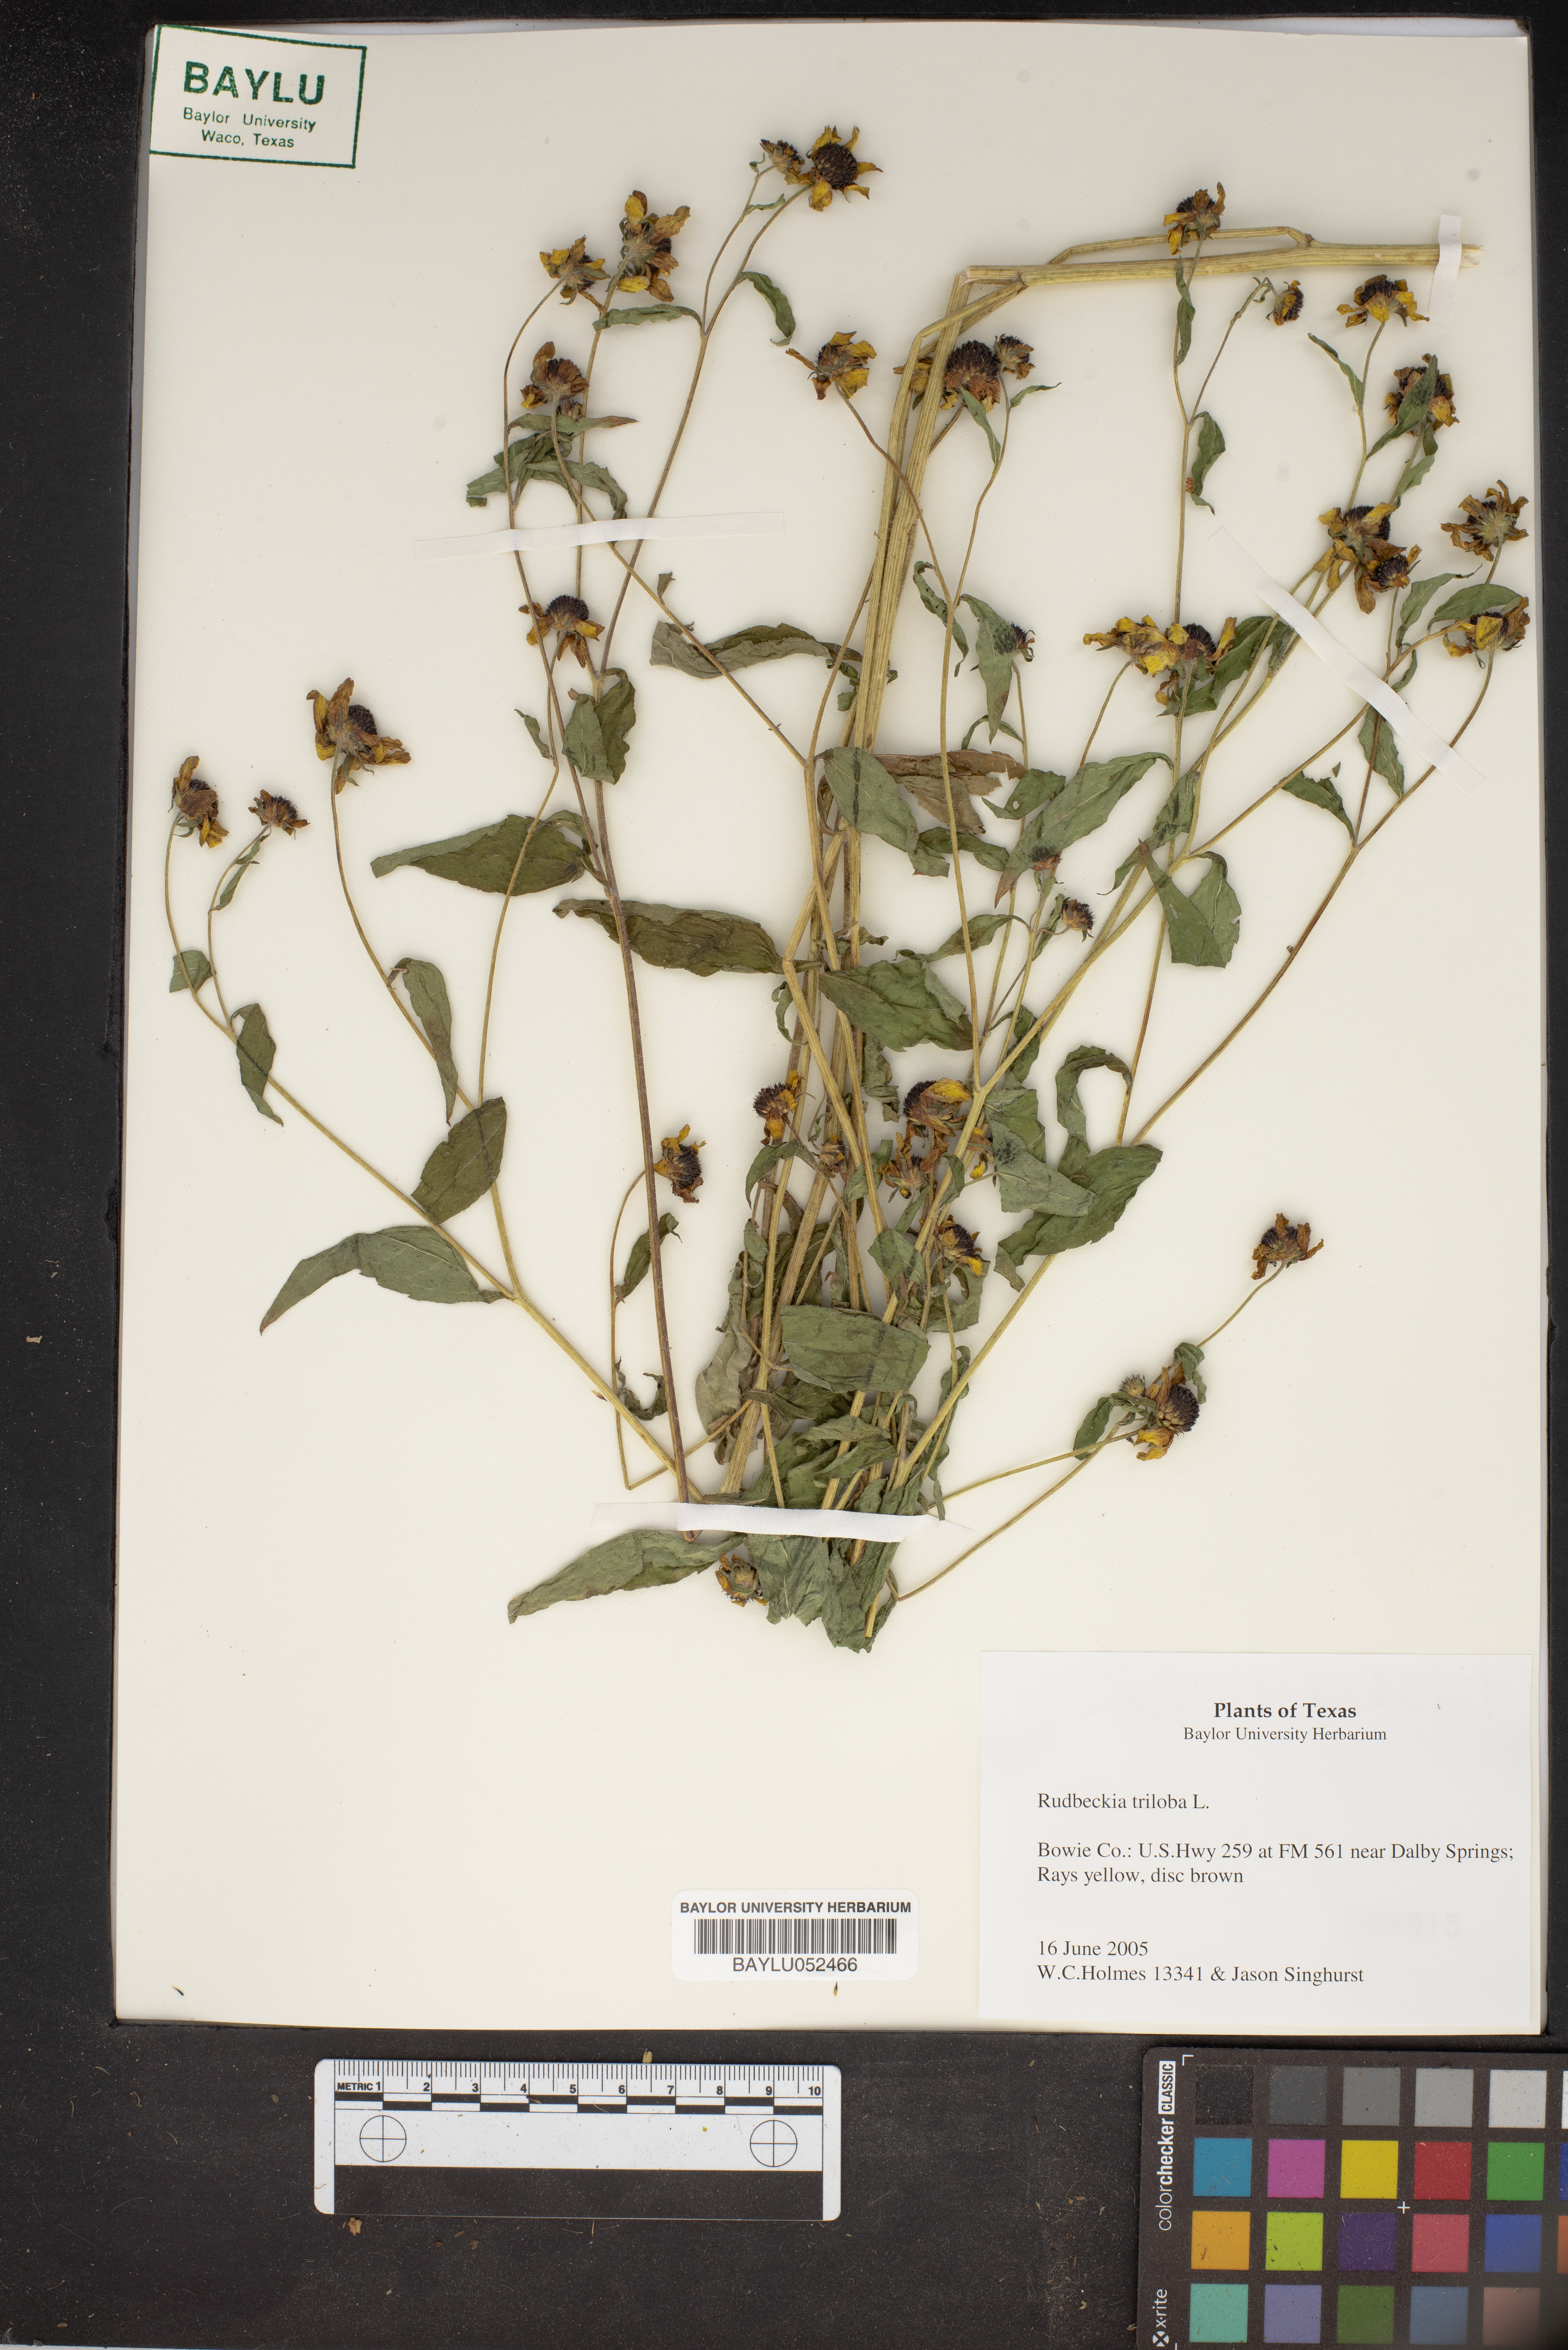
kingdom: Plantae
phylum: Tracheophyta
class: Magnoliopsida
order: Asterales
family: Asteraceae
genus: Rudbeckia
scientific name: Rudbeckia triloba
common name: Thin-leaved coneflower
